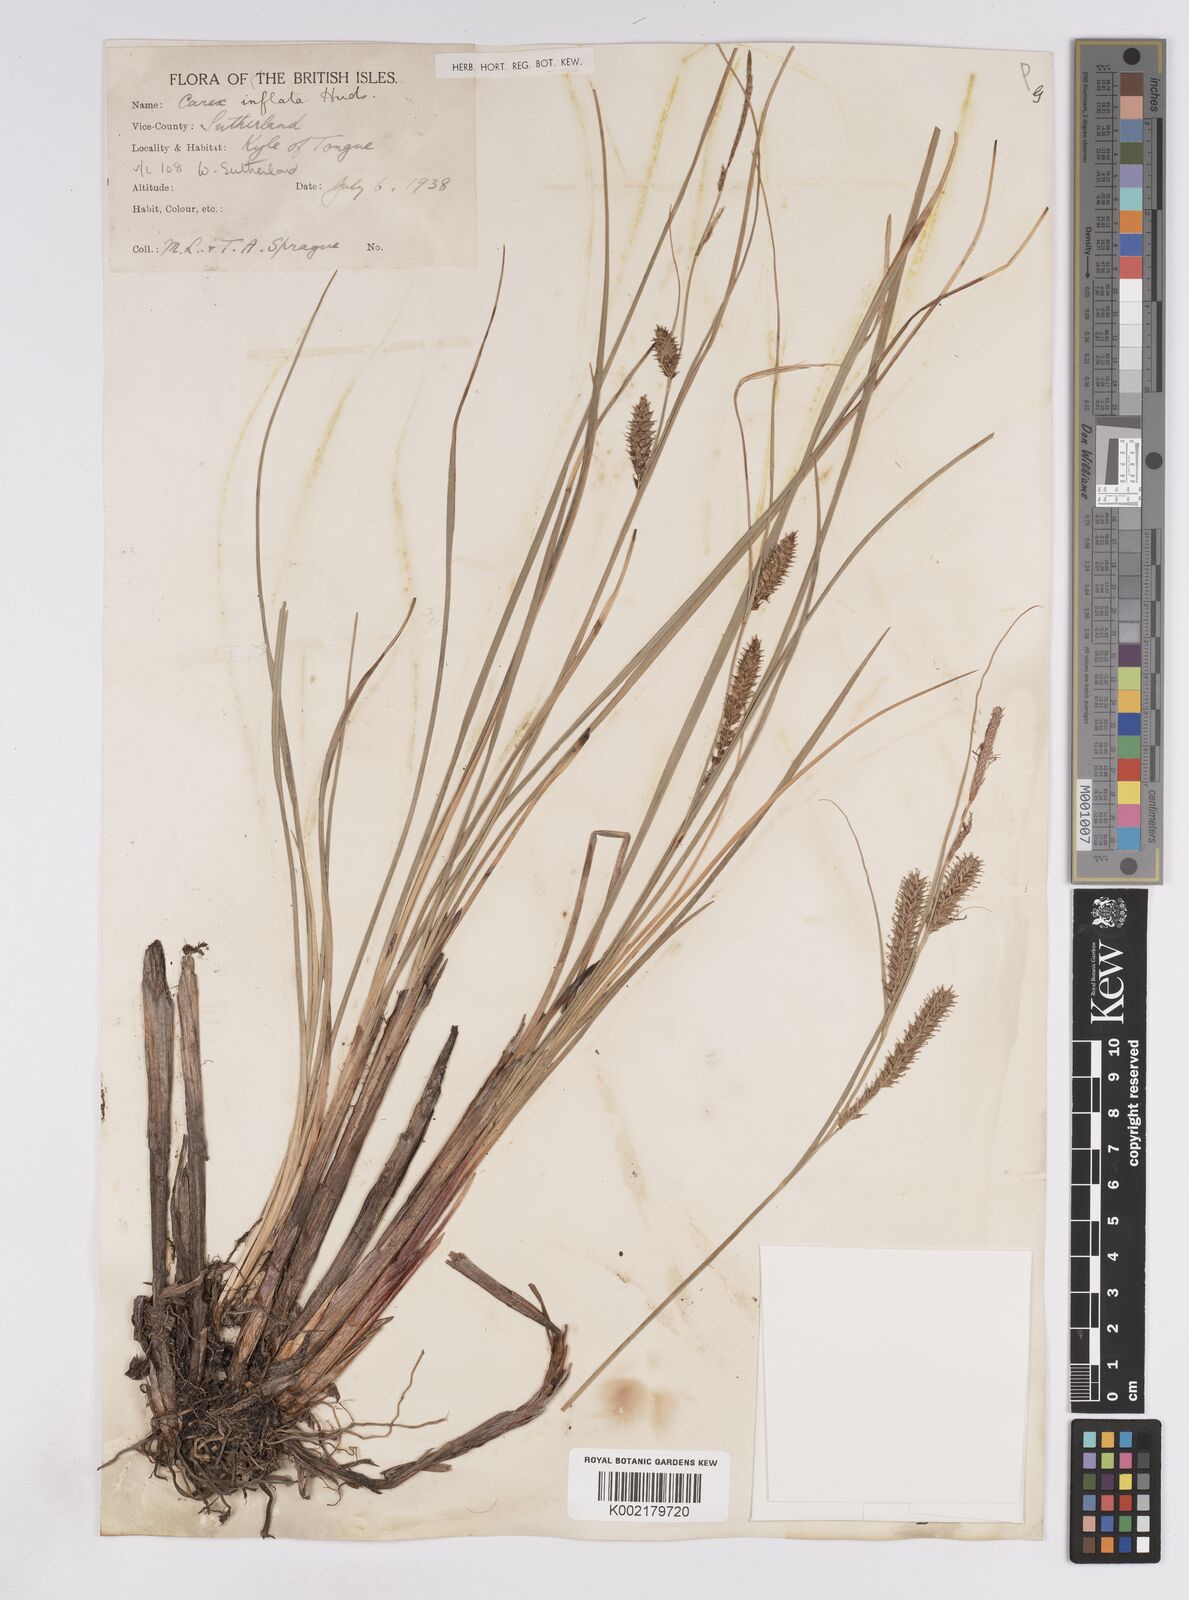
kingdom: Plantae
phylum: Tracheophyta
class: Liliopsida
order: Poales
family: Cyperaceae
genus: Carex
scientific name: Carex rostrata
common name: Bottle sedge
